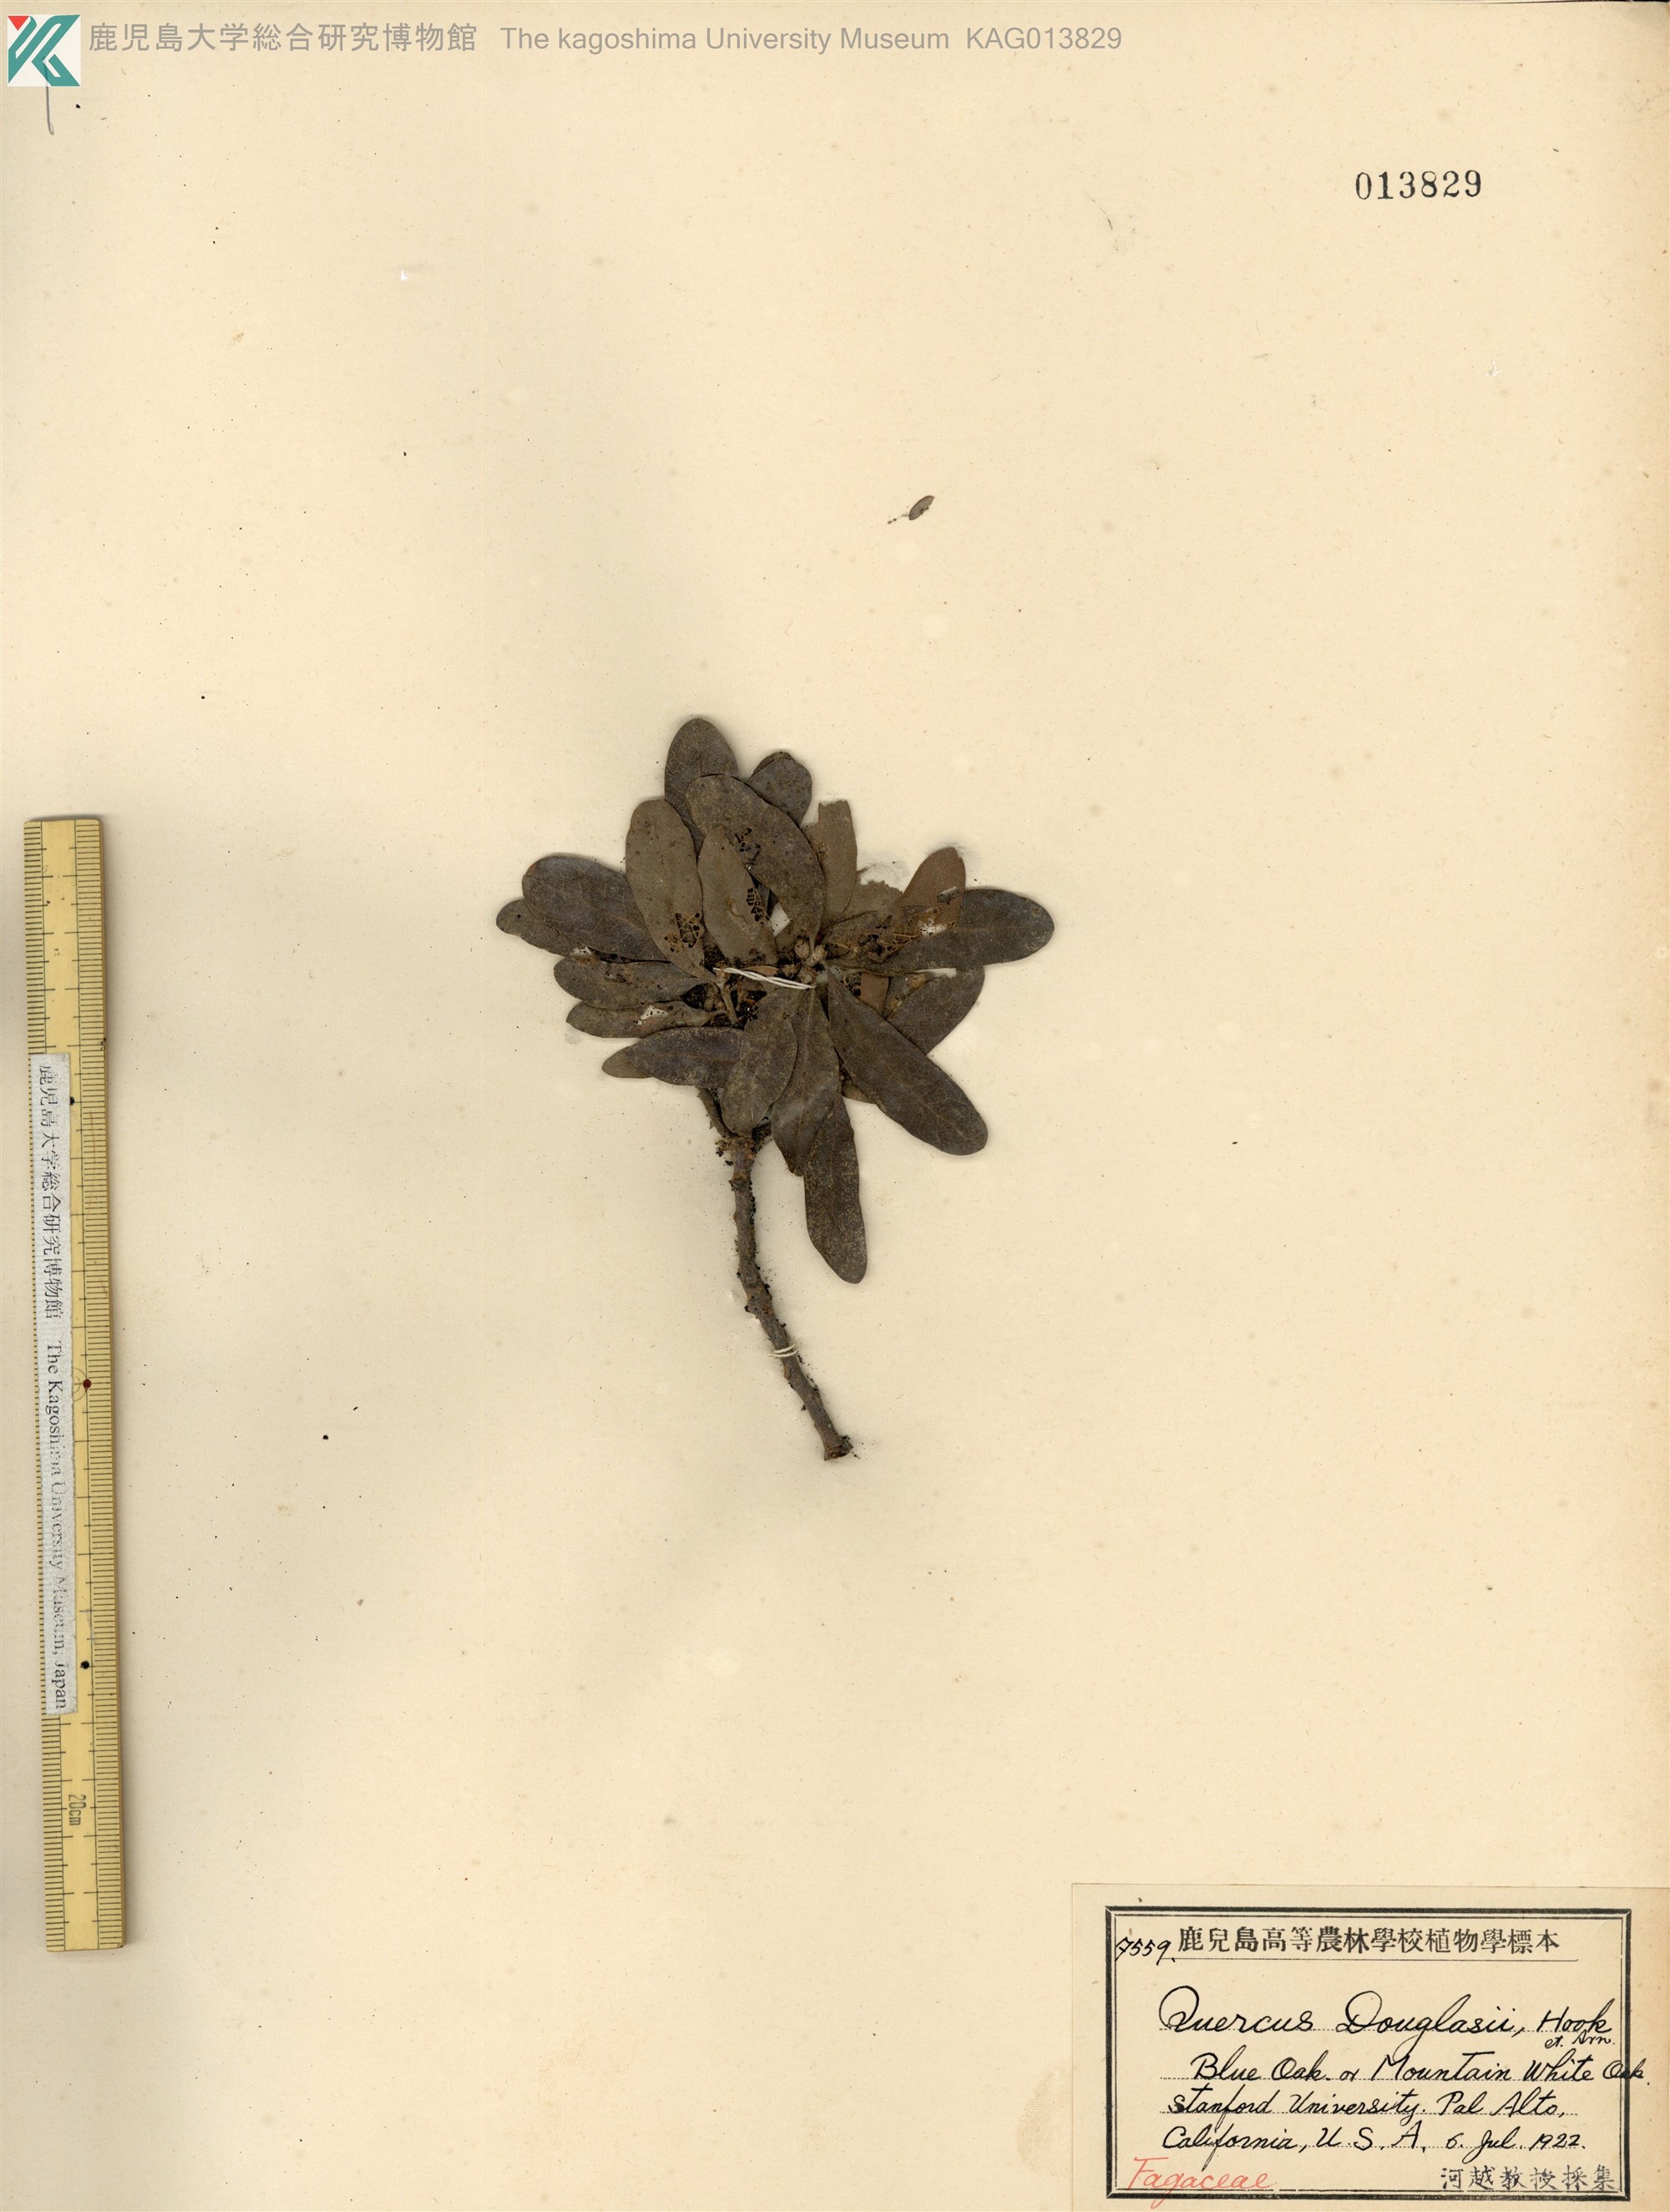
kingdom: Plantae
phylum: Tracheophyta
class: Magnoliopsida
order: Fagales
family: Fagaceae
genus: Quercus
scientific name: Quercus douglasii
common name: Blue oak
